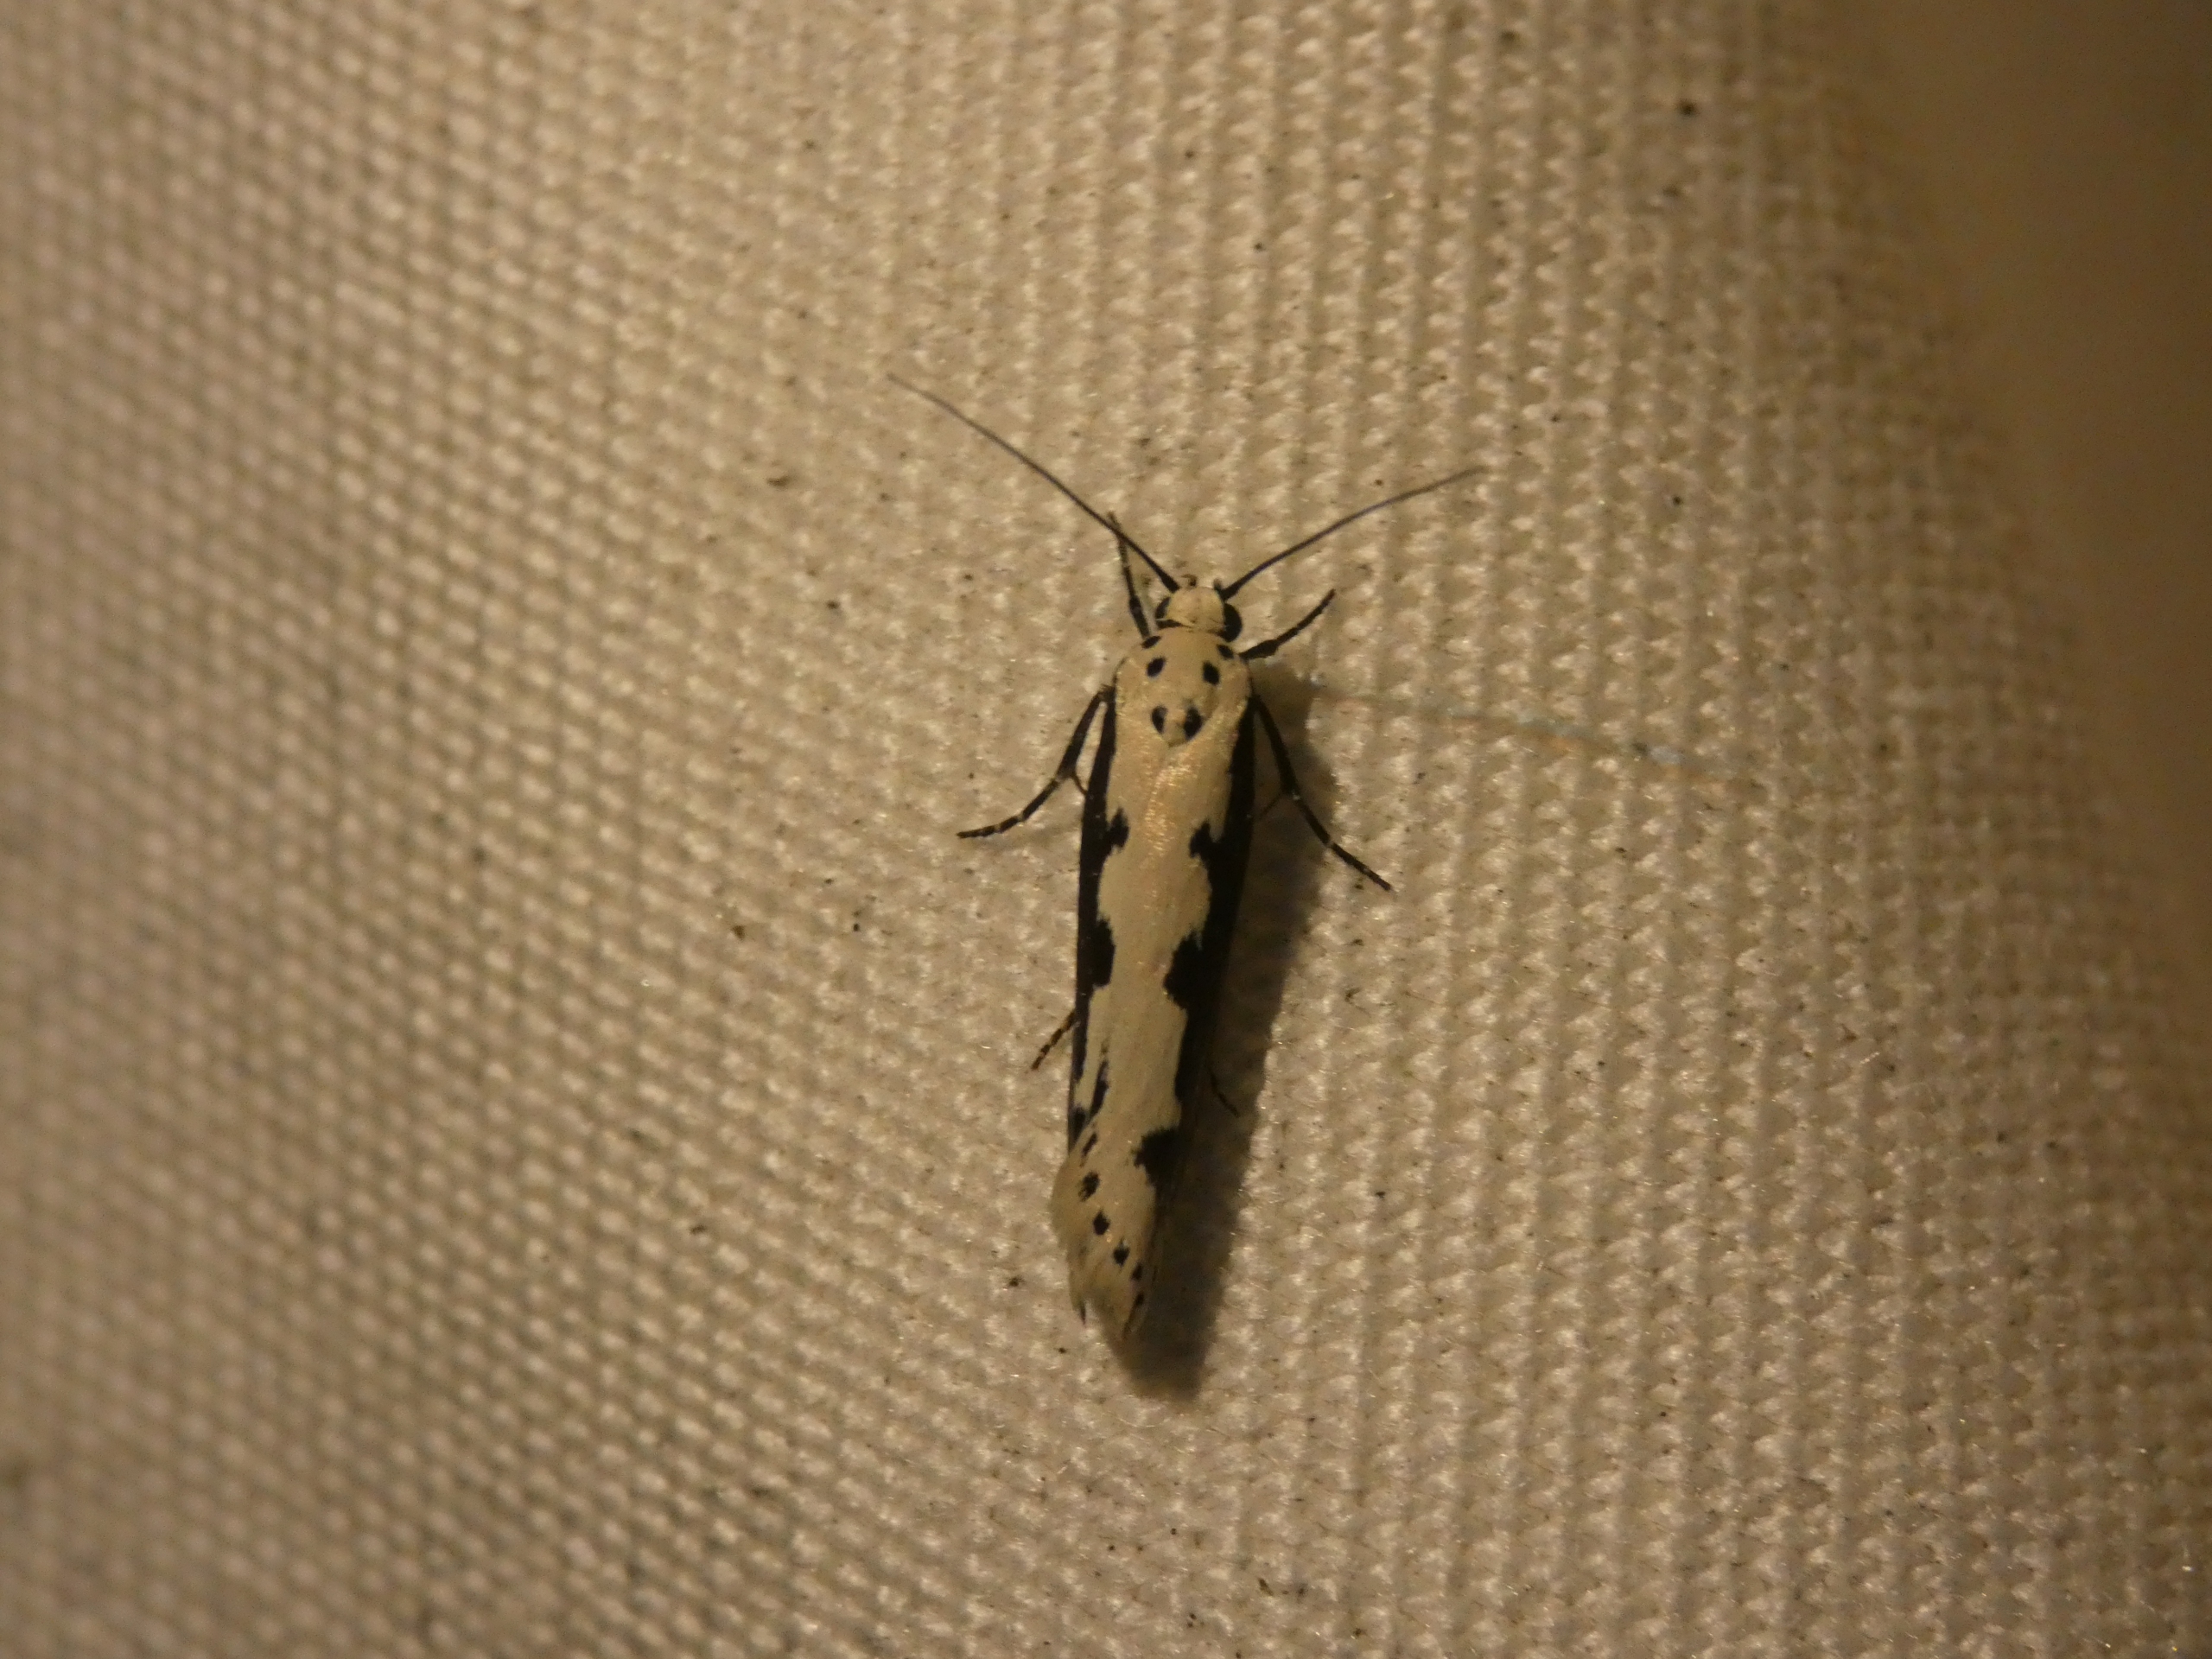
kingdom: Animalia
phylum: Arthropoda
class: Insecta
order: Lepidoptera
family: Ethmiidae
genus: Ethmia
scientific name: Ethmia bipunctella
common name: Slangehovedmøl
